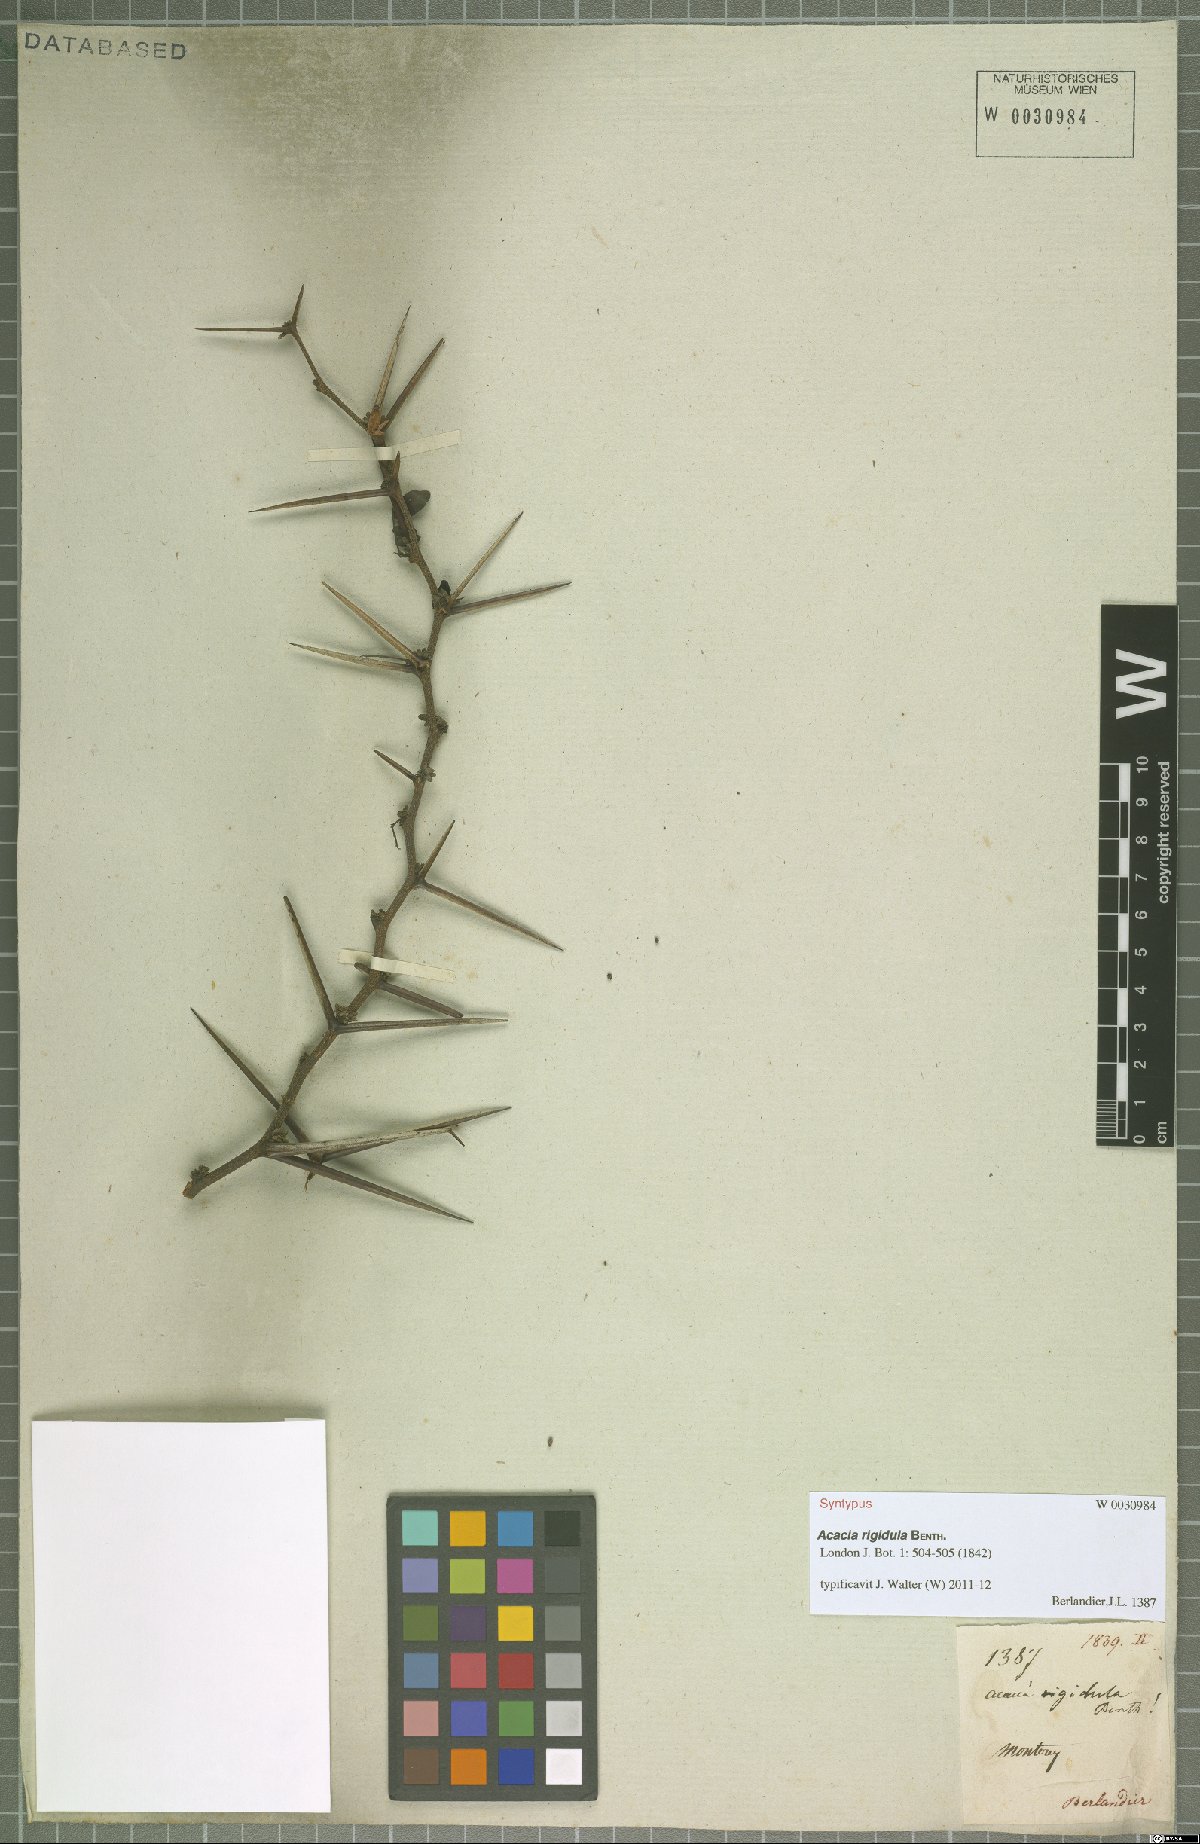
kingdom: Plantae
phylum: Tracheophyta
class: Magnoliopsida
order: Fabales
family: Fabaceae
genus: Vachellia
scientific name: Vachellia rigidula
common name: Blackbrush
